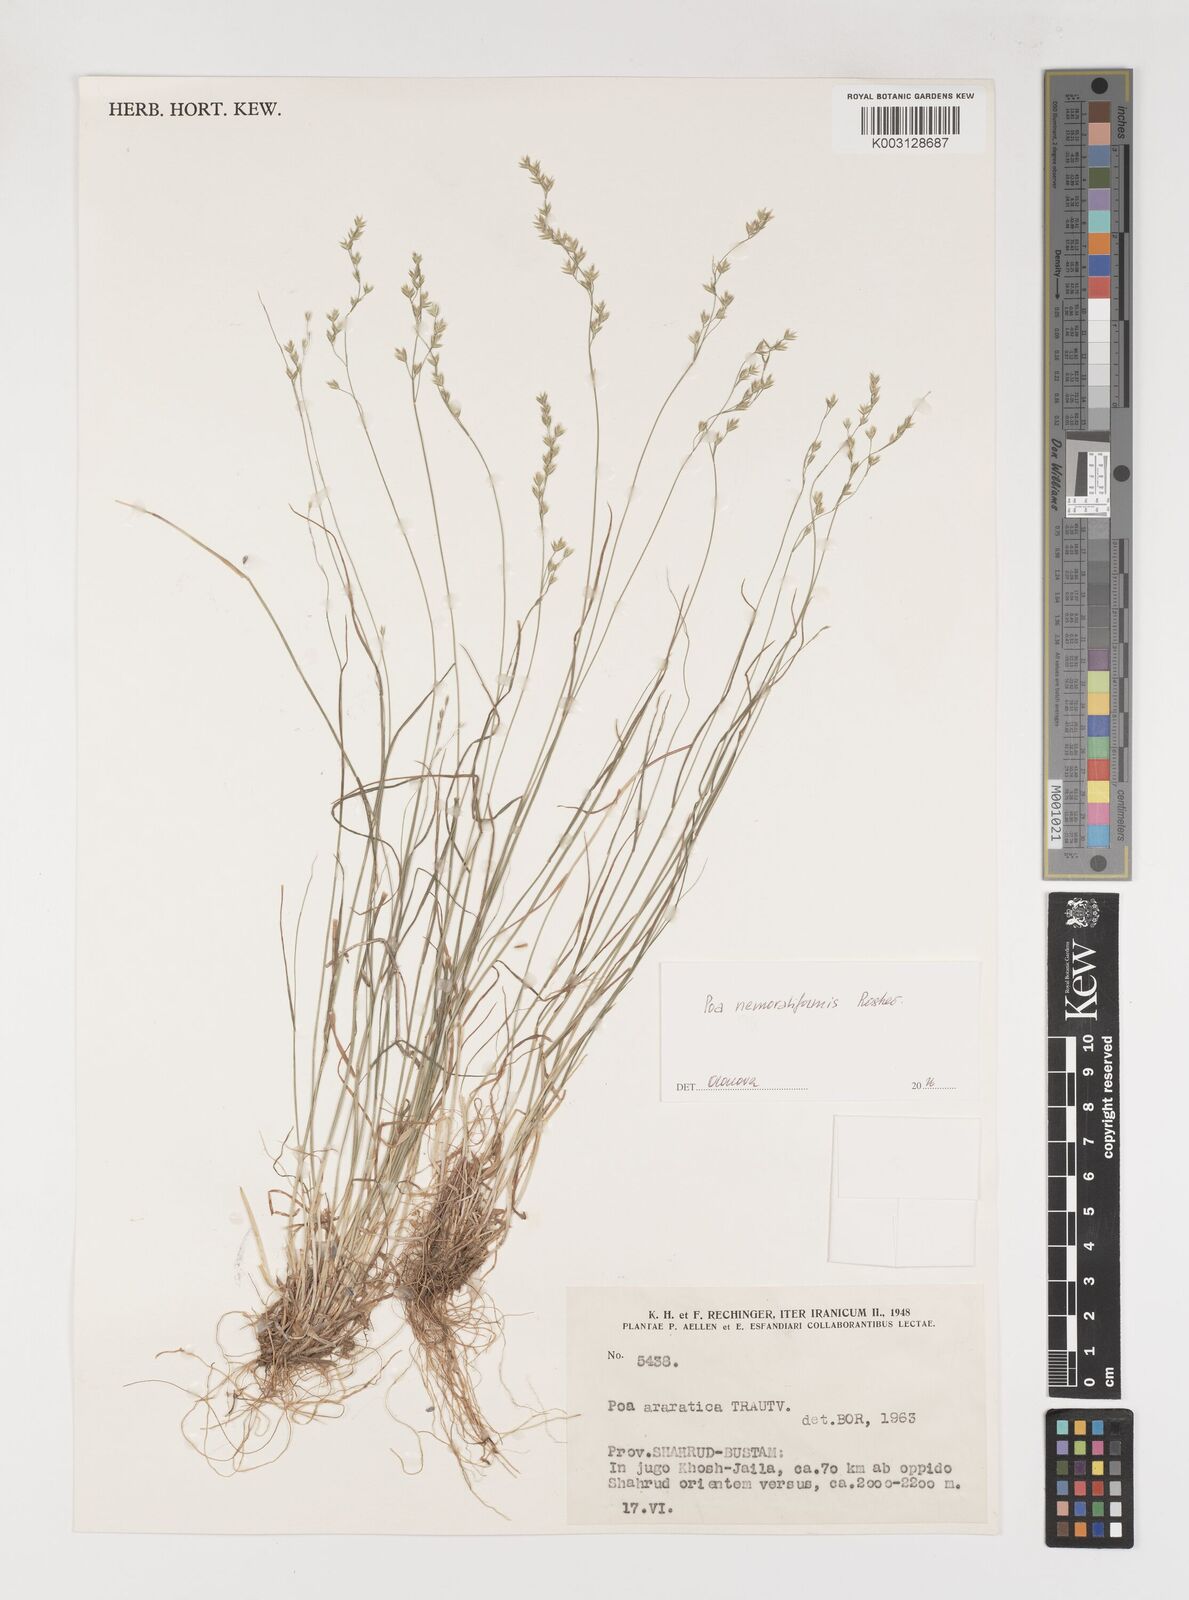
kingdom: Plantae
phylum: Tracheophyta
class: Liliopsida
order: Poales
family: Poaceae
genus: Poa
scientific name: Poa araratica
